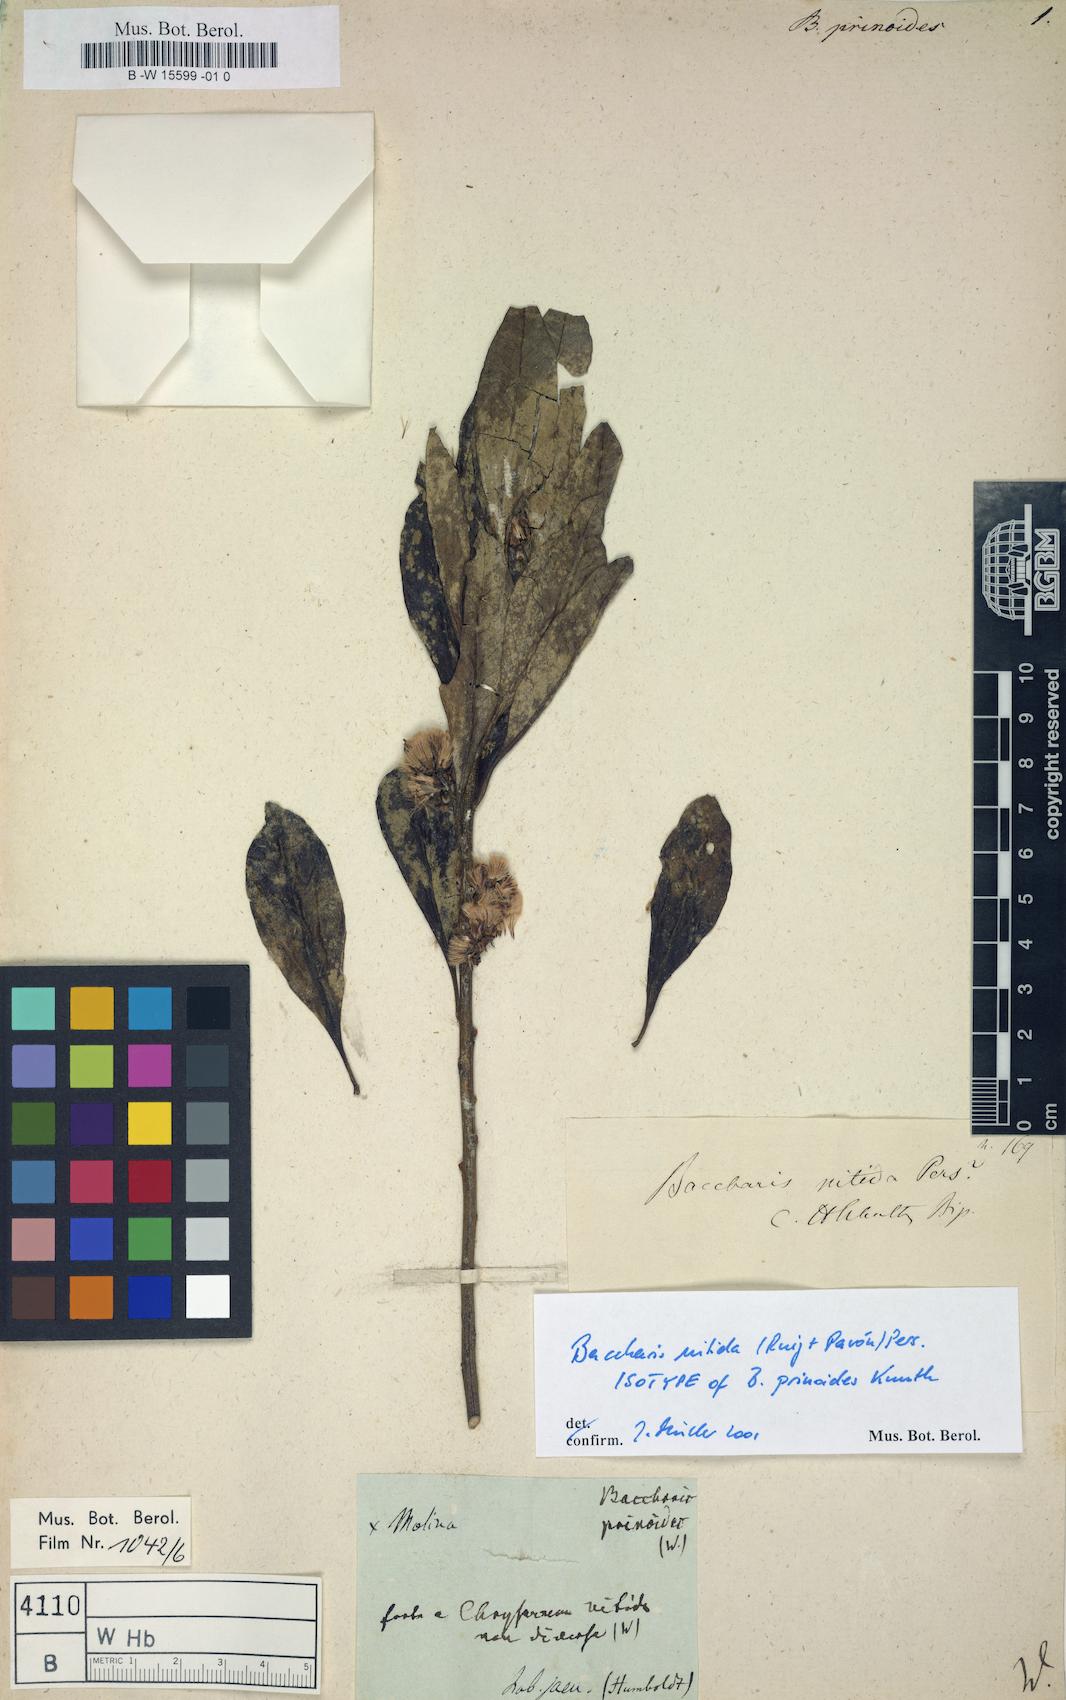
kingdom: Plantae
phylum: Tracheophyta
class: Magnoliopsida
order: Asterales
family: Asteraceae
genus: Baccharis
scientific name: Baccharis nitida
